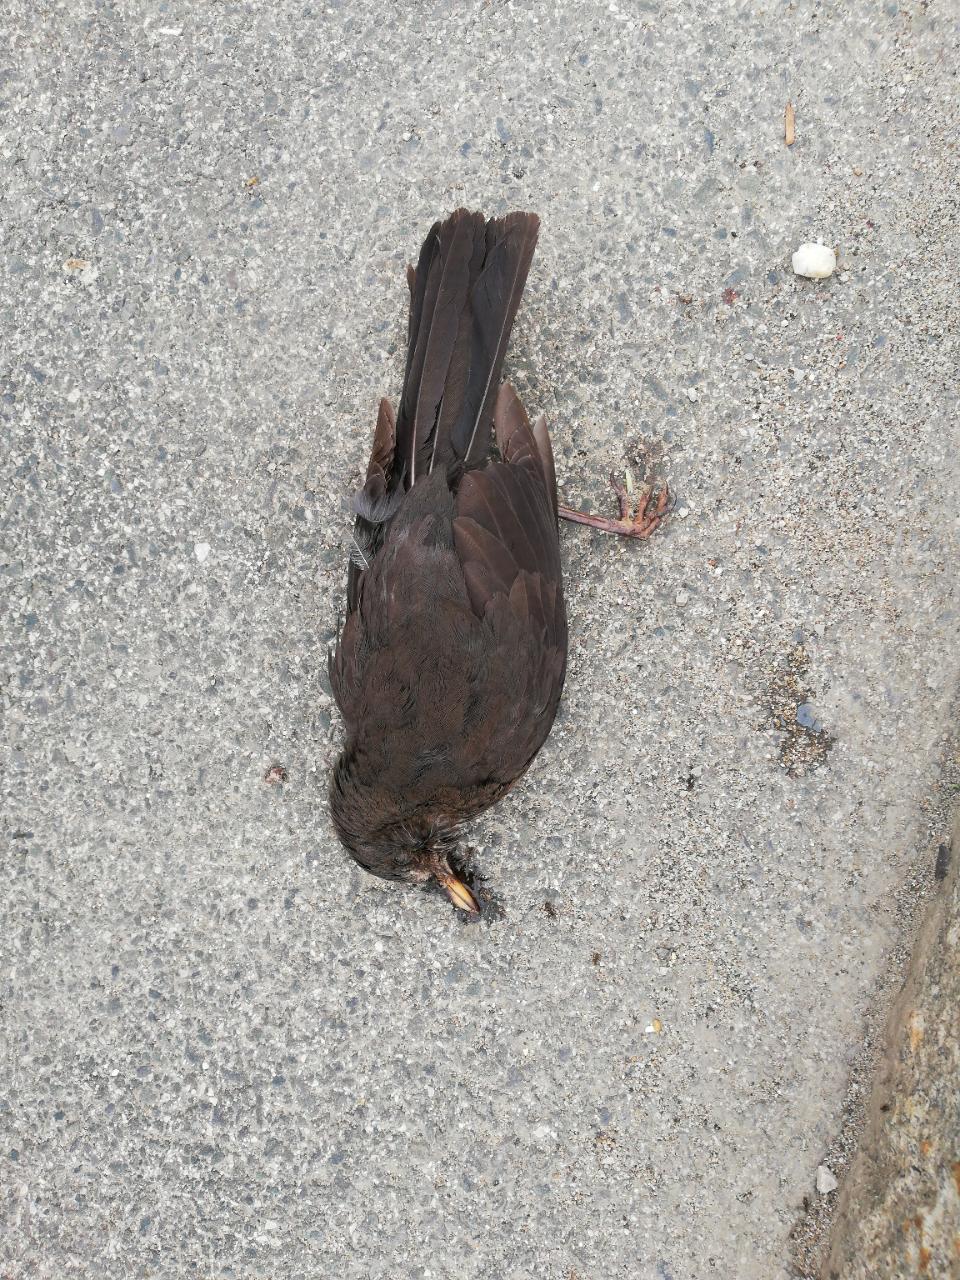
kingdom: Animalia
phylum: Chordata
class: Aves
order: Passeriformes
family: Turdidae
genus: Turdus
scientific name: Turdus merula
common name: Common blackbird
